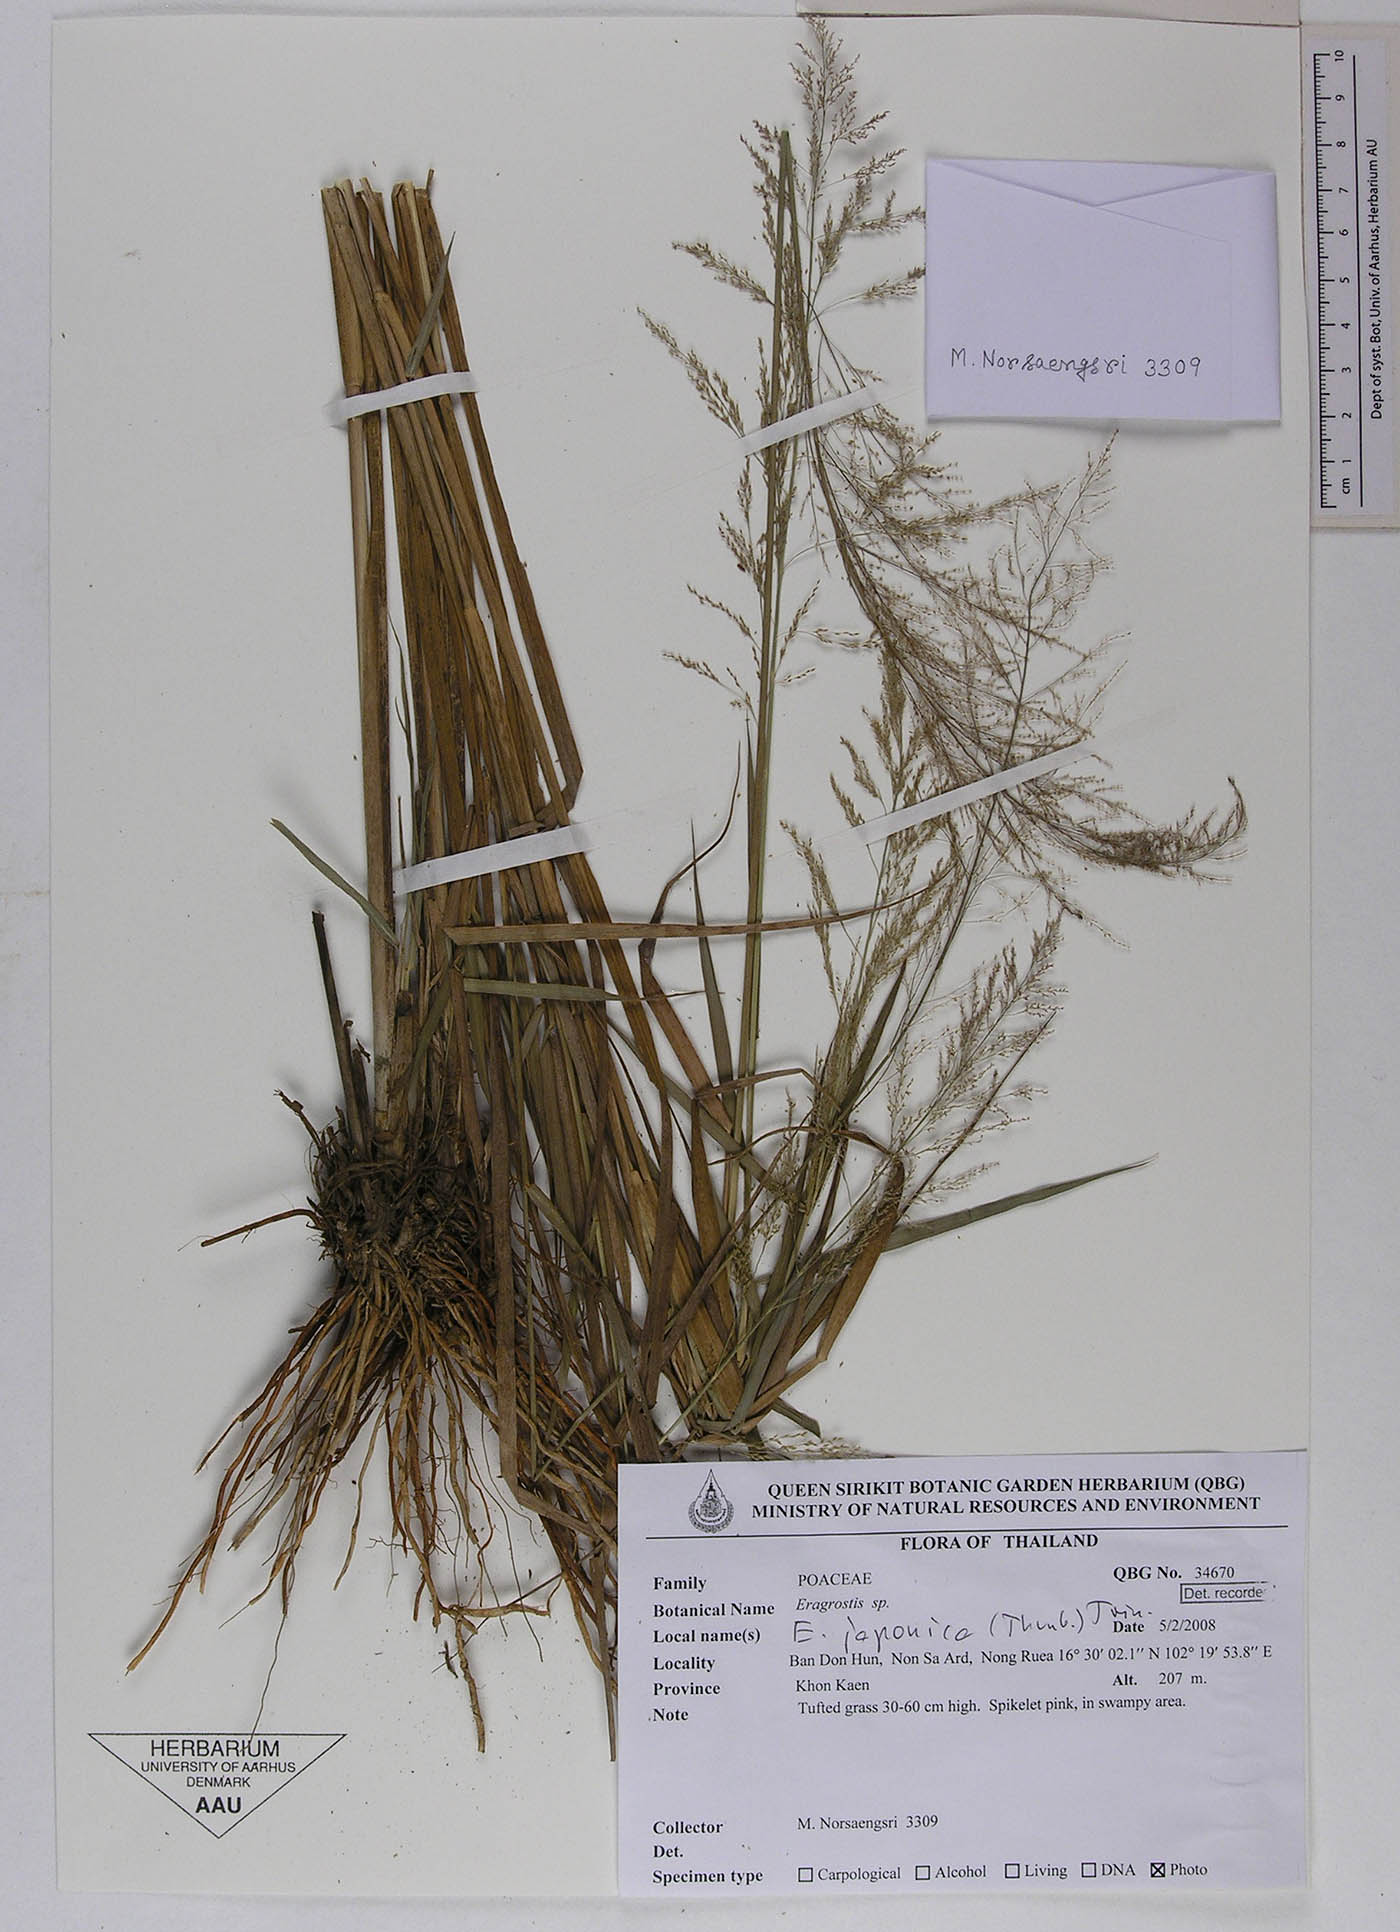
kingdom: Plantae
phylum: Tracheophyta
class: Liliopsida
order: Poales
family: Poaceae
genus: Eragrostis
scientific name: Eragrostis japonica
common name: Pond lovegrass
